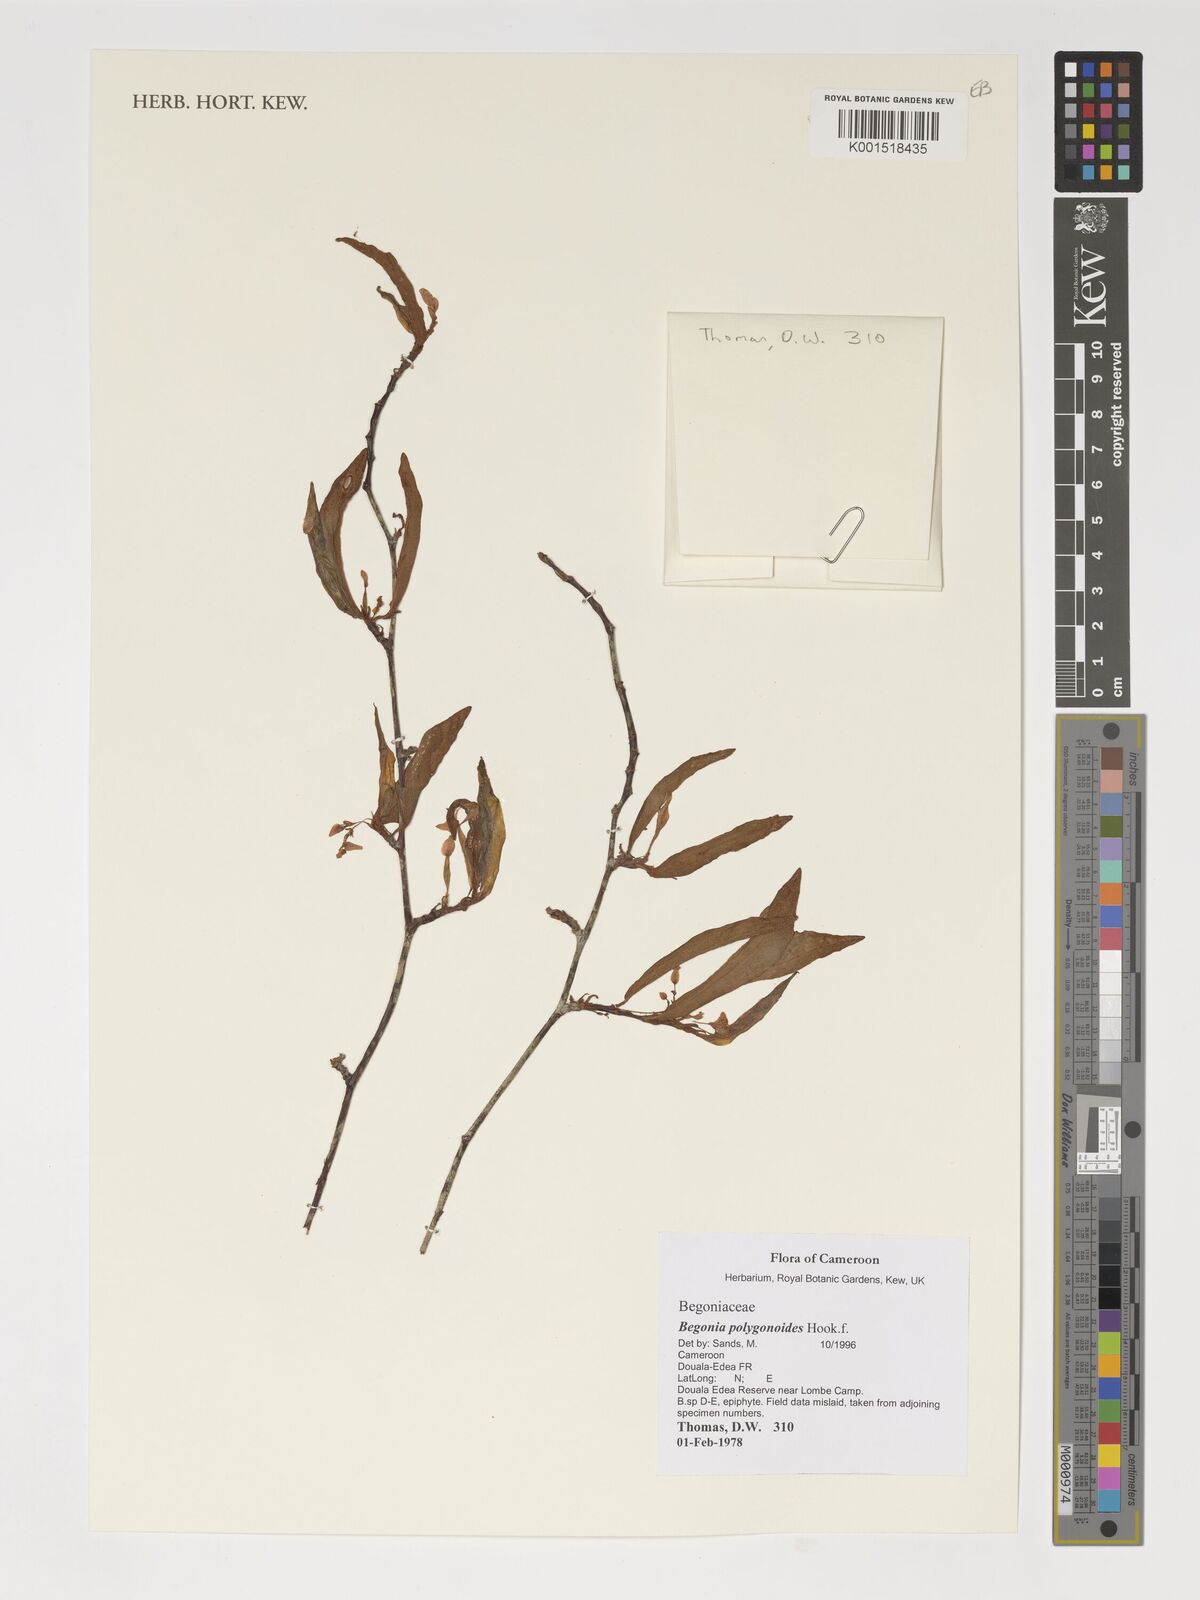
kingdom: Plantae
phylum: Tracheophyta
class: Magnoliopsida
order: Cucurbitales
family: Begoniaceae
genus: Begonia
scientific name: Begonia polygonoides
